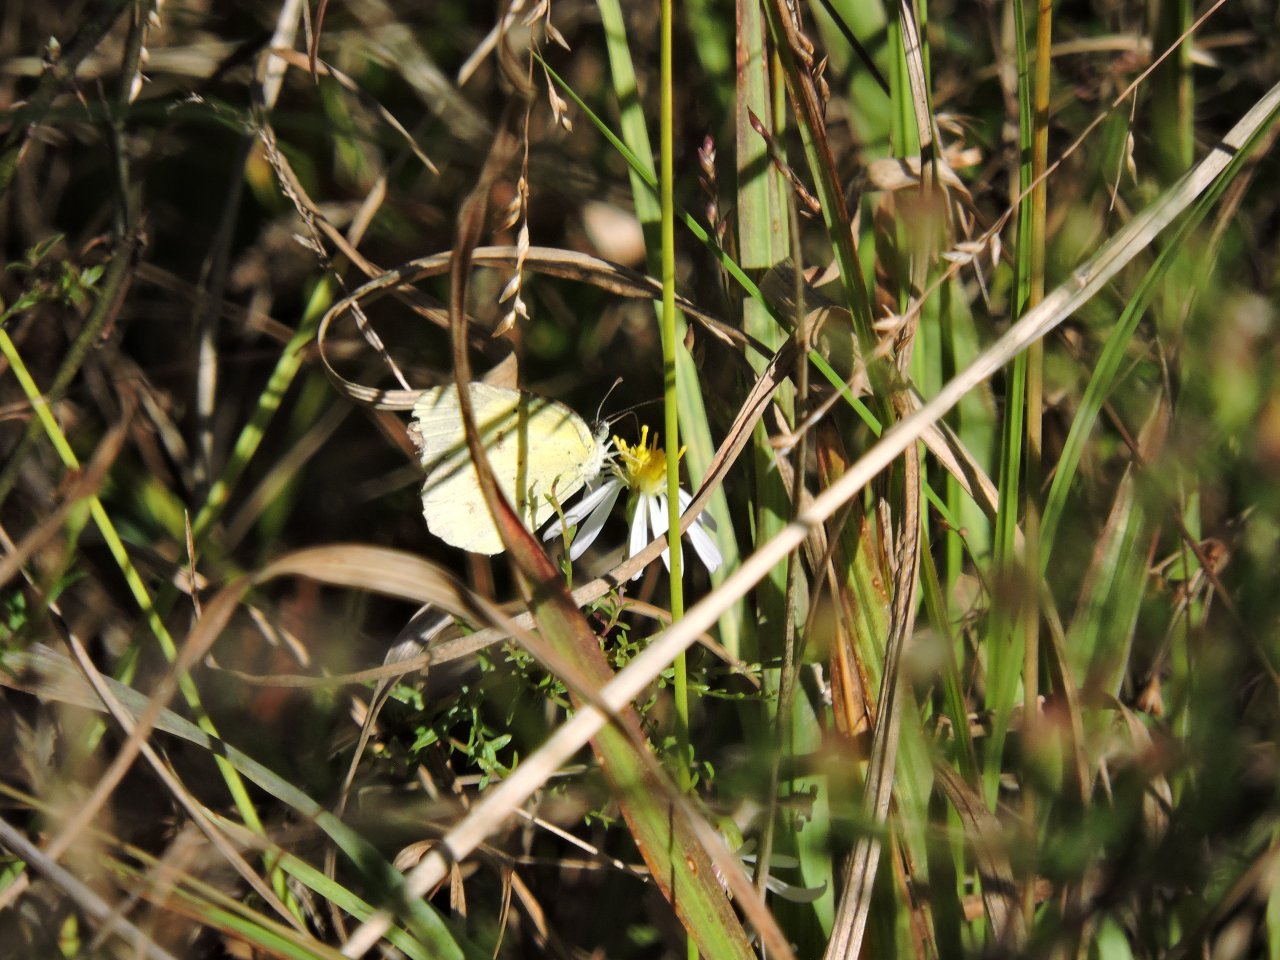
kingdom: Animalia
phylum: Arthropoda
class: Insecta
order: Lepidoptera
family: Pieridae
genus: Pyrisitia
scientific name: Pyrisitia lisa
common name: Little Yellow
